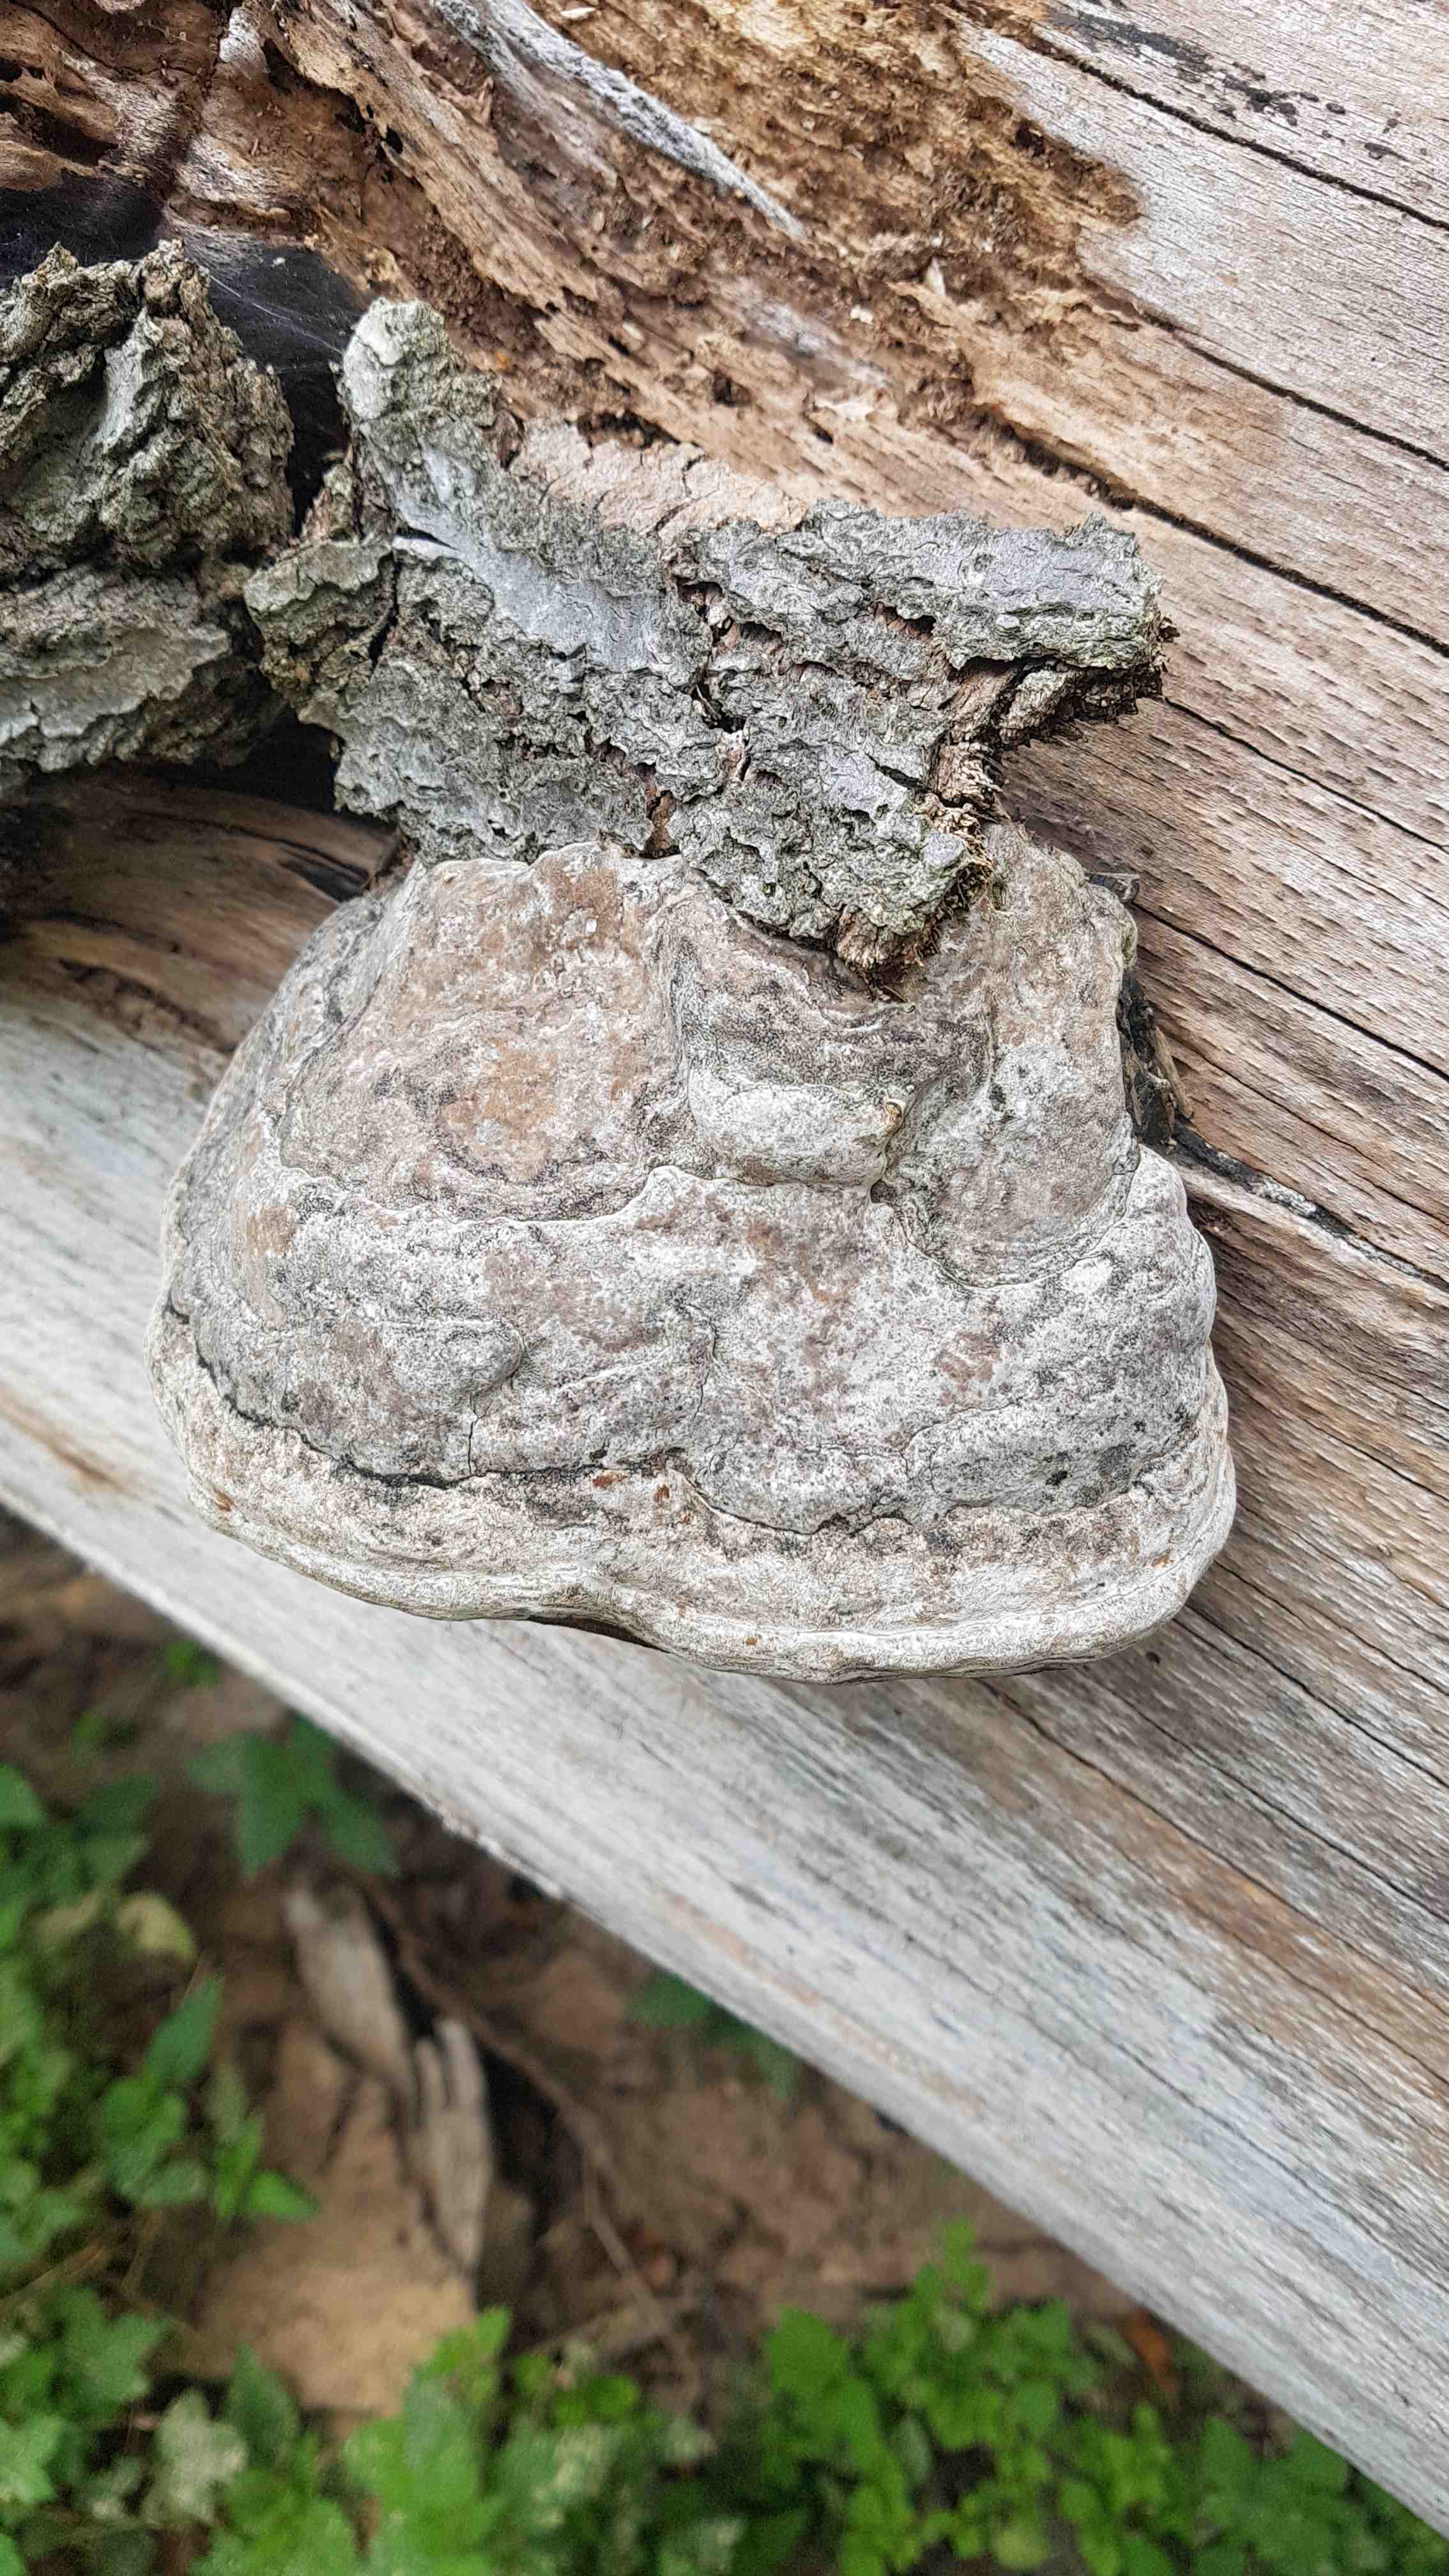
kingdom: Fungi
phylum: Basidiomycota
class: Agaricomycetes
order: Polyporales
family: Polyporaceae
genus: Fomes
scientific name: Fomes fomentarius
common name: tøndersvamp
